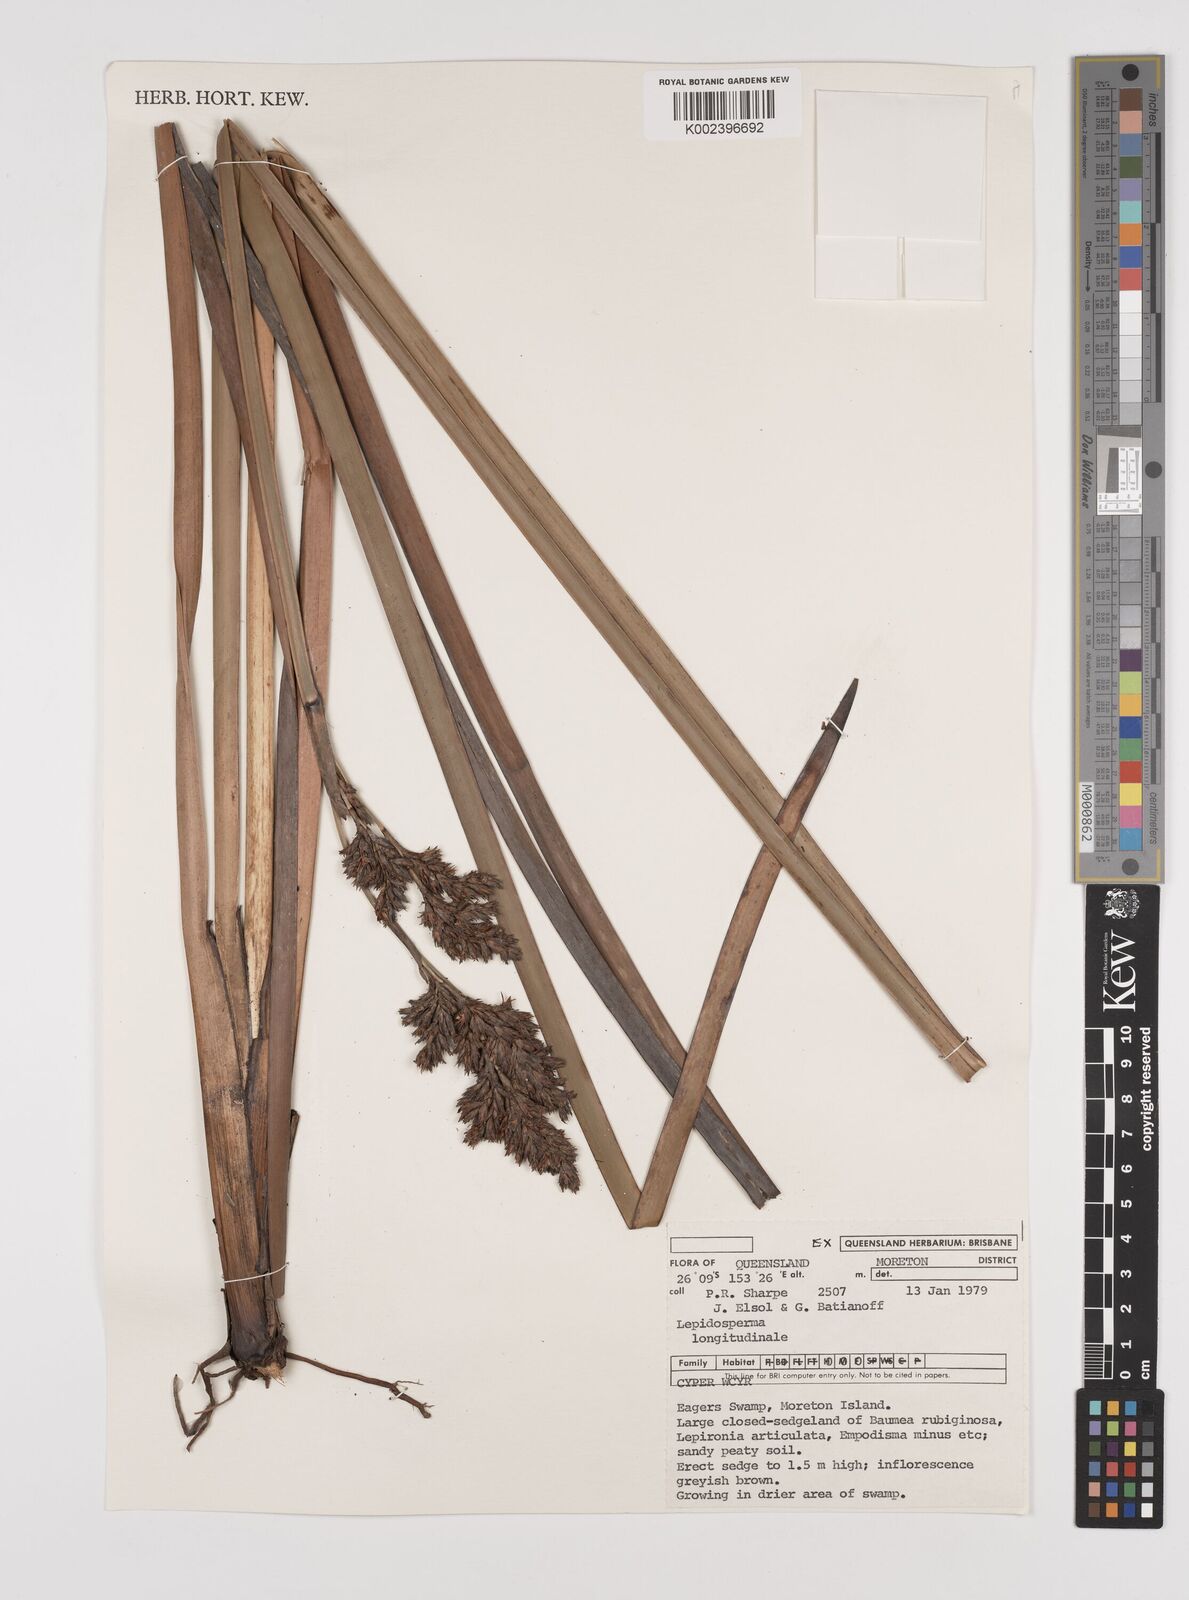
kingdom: Plantae
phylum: Tracheophyta
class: Liliopsida
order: Poales
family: Cyperaceae
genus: Lepidosperma
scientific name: Lepidosperma longitudinale
